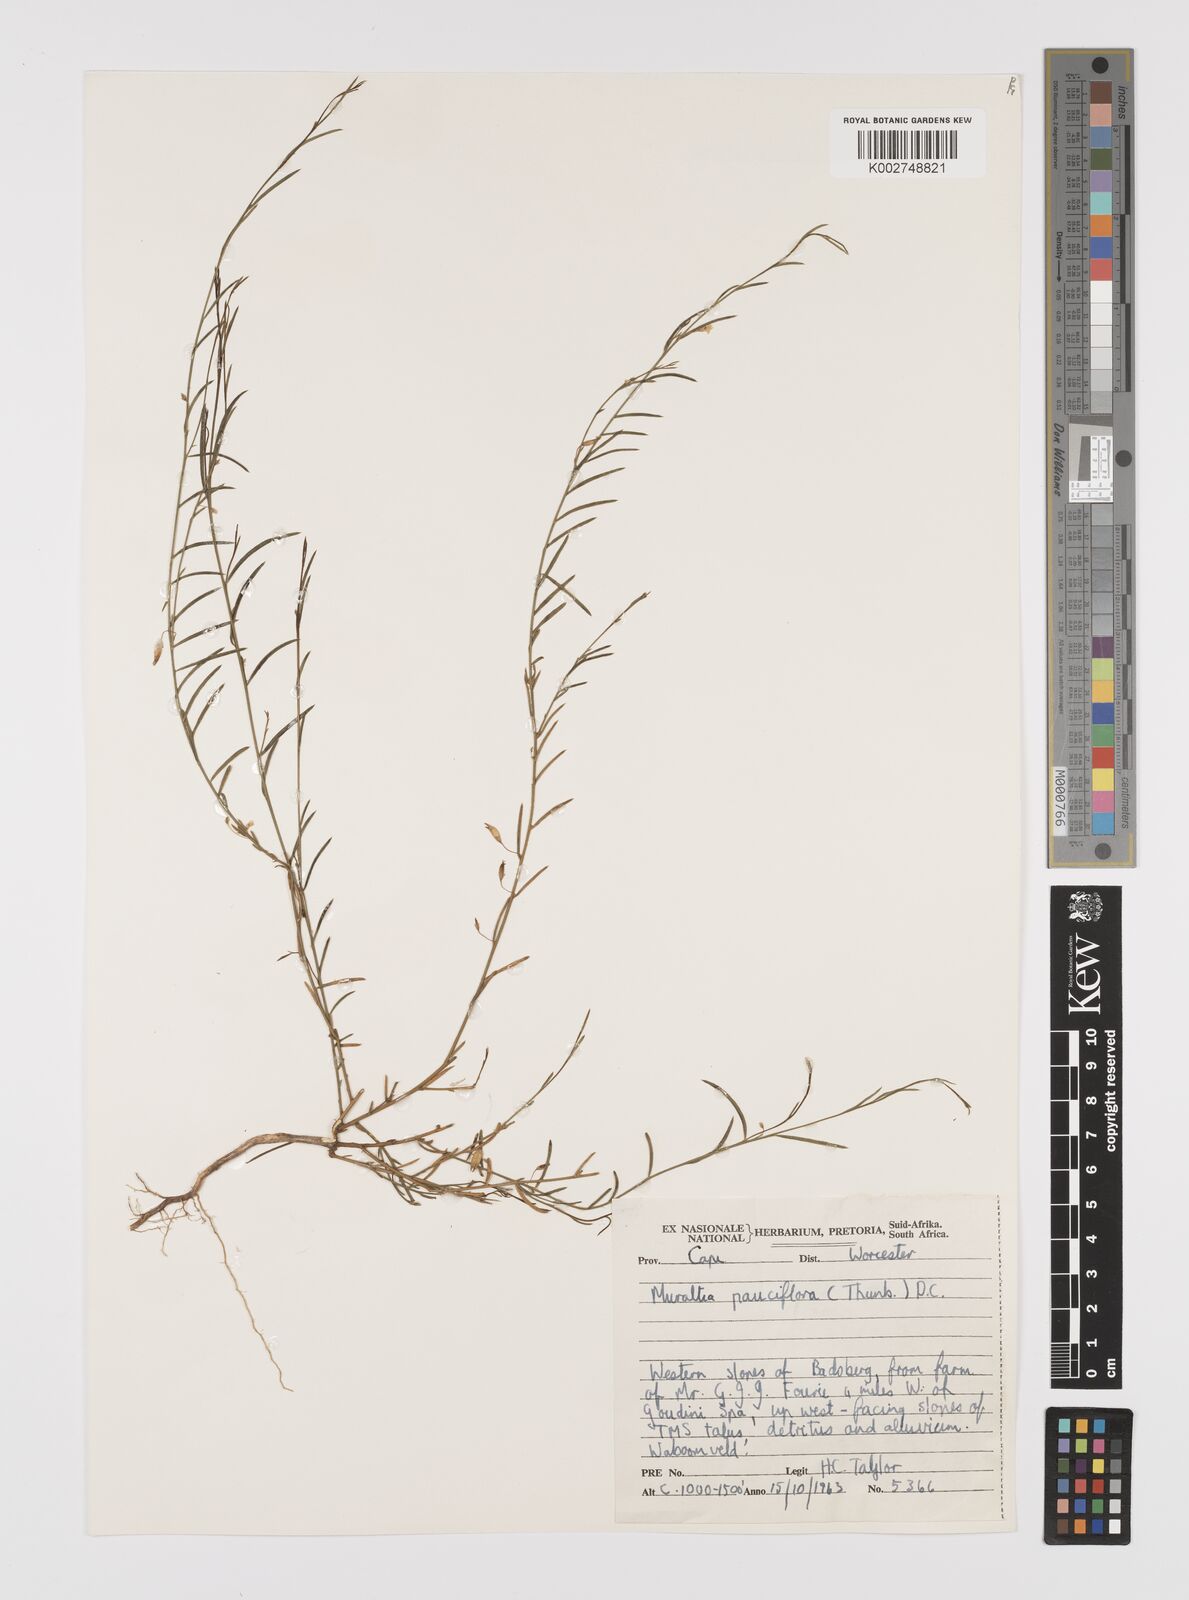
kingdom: Plantae
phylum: Tracheophyta
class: Magnoliopsida
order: Fabales
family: Polygalaceae
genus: Muraltia
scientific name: Muraltia pauciflora
